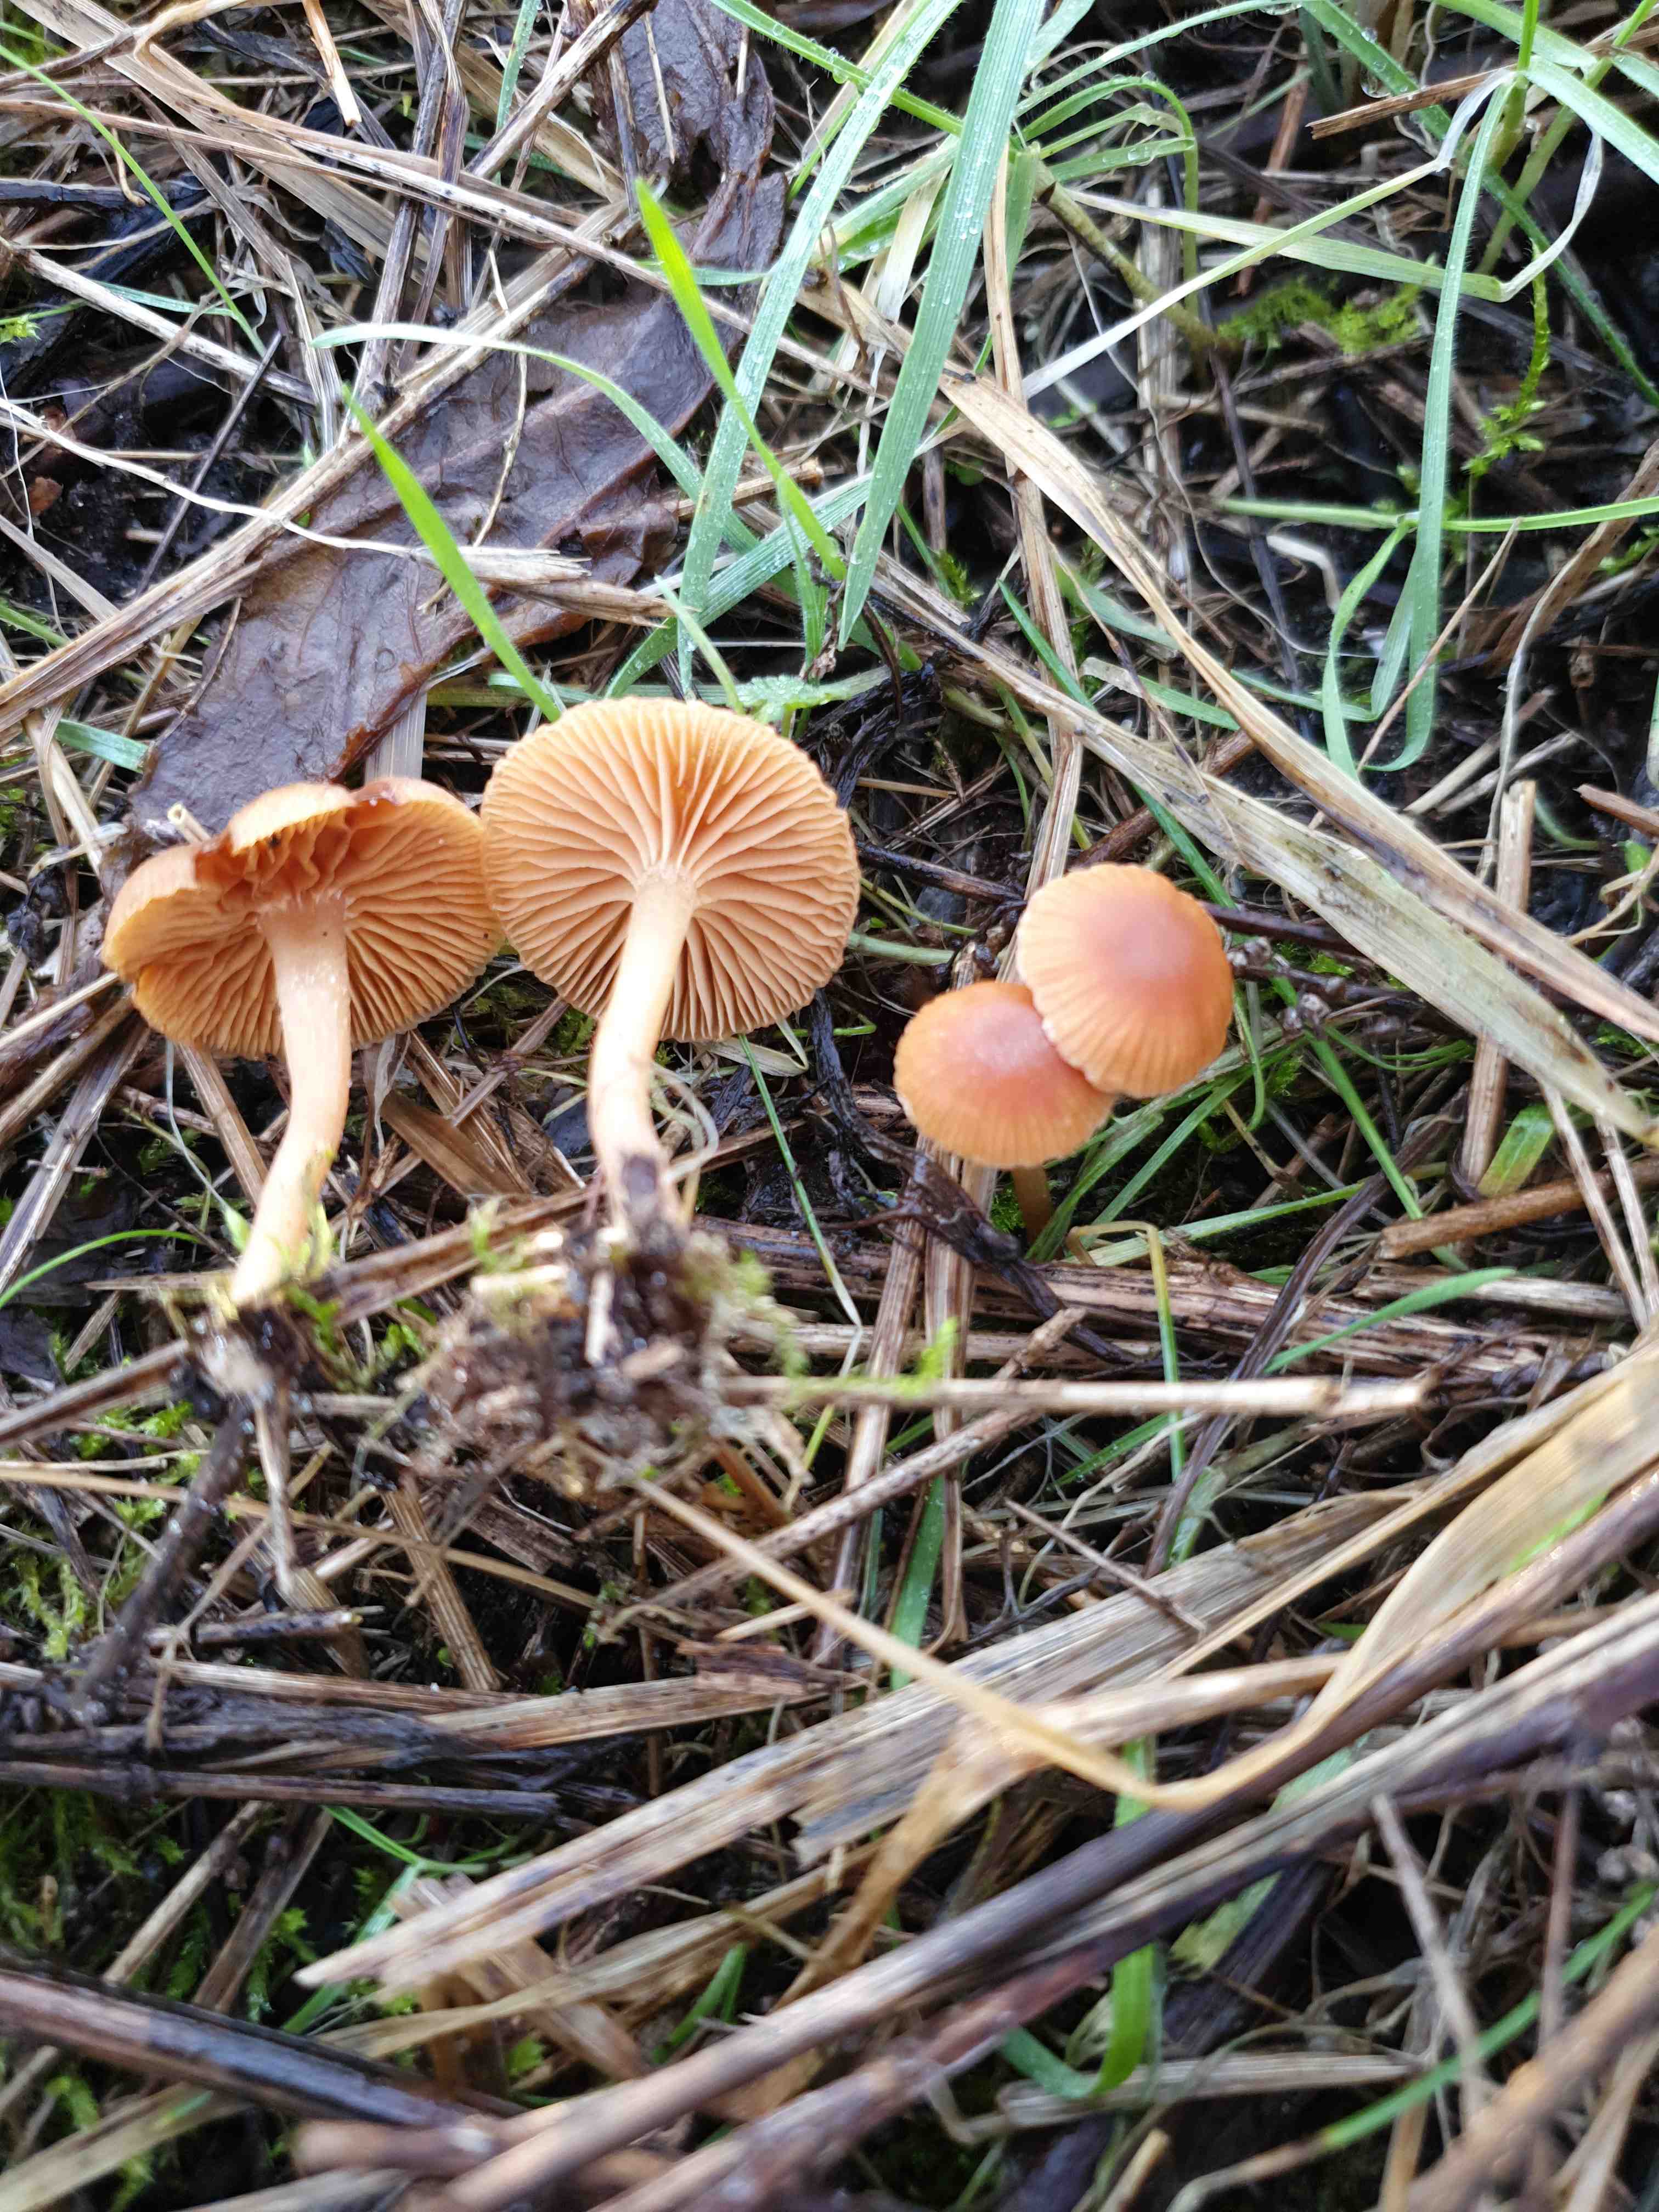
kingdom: Fungi
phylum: Basidiomycota
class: Agaricomycetes
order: Agaricales
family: Tubariaceae
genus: Tubaria
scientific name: Tubaria furfuracea
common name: kliddet fnughat
